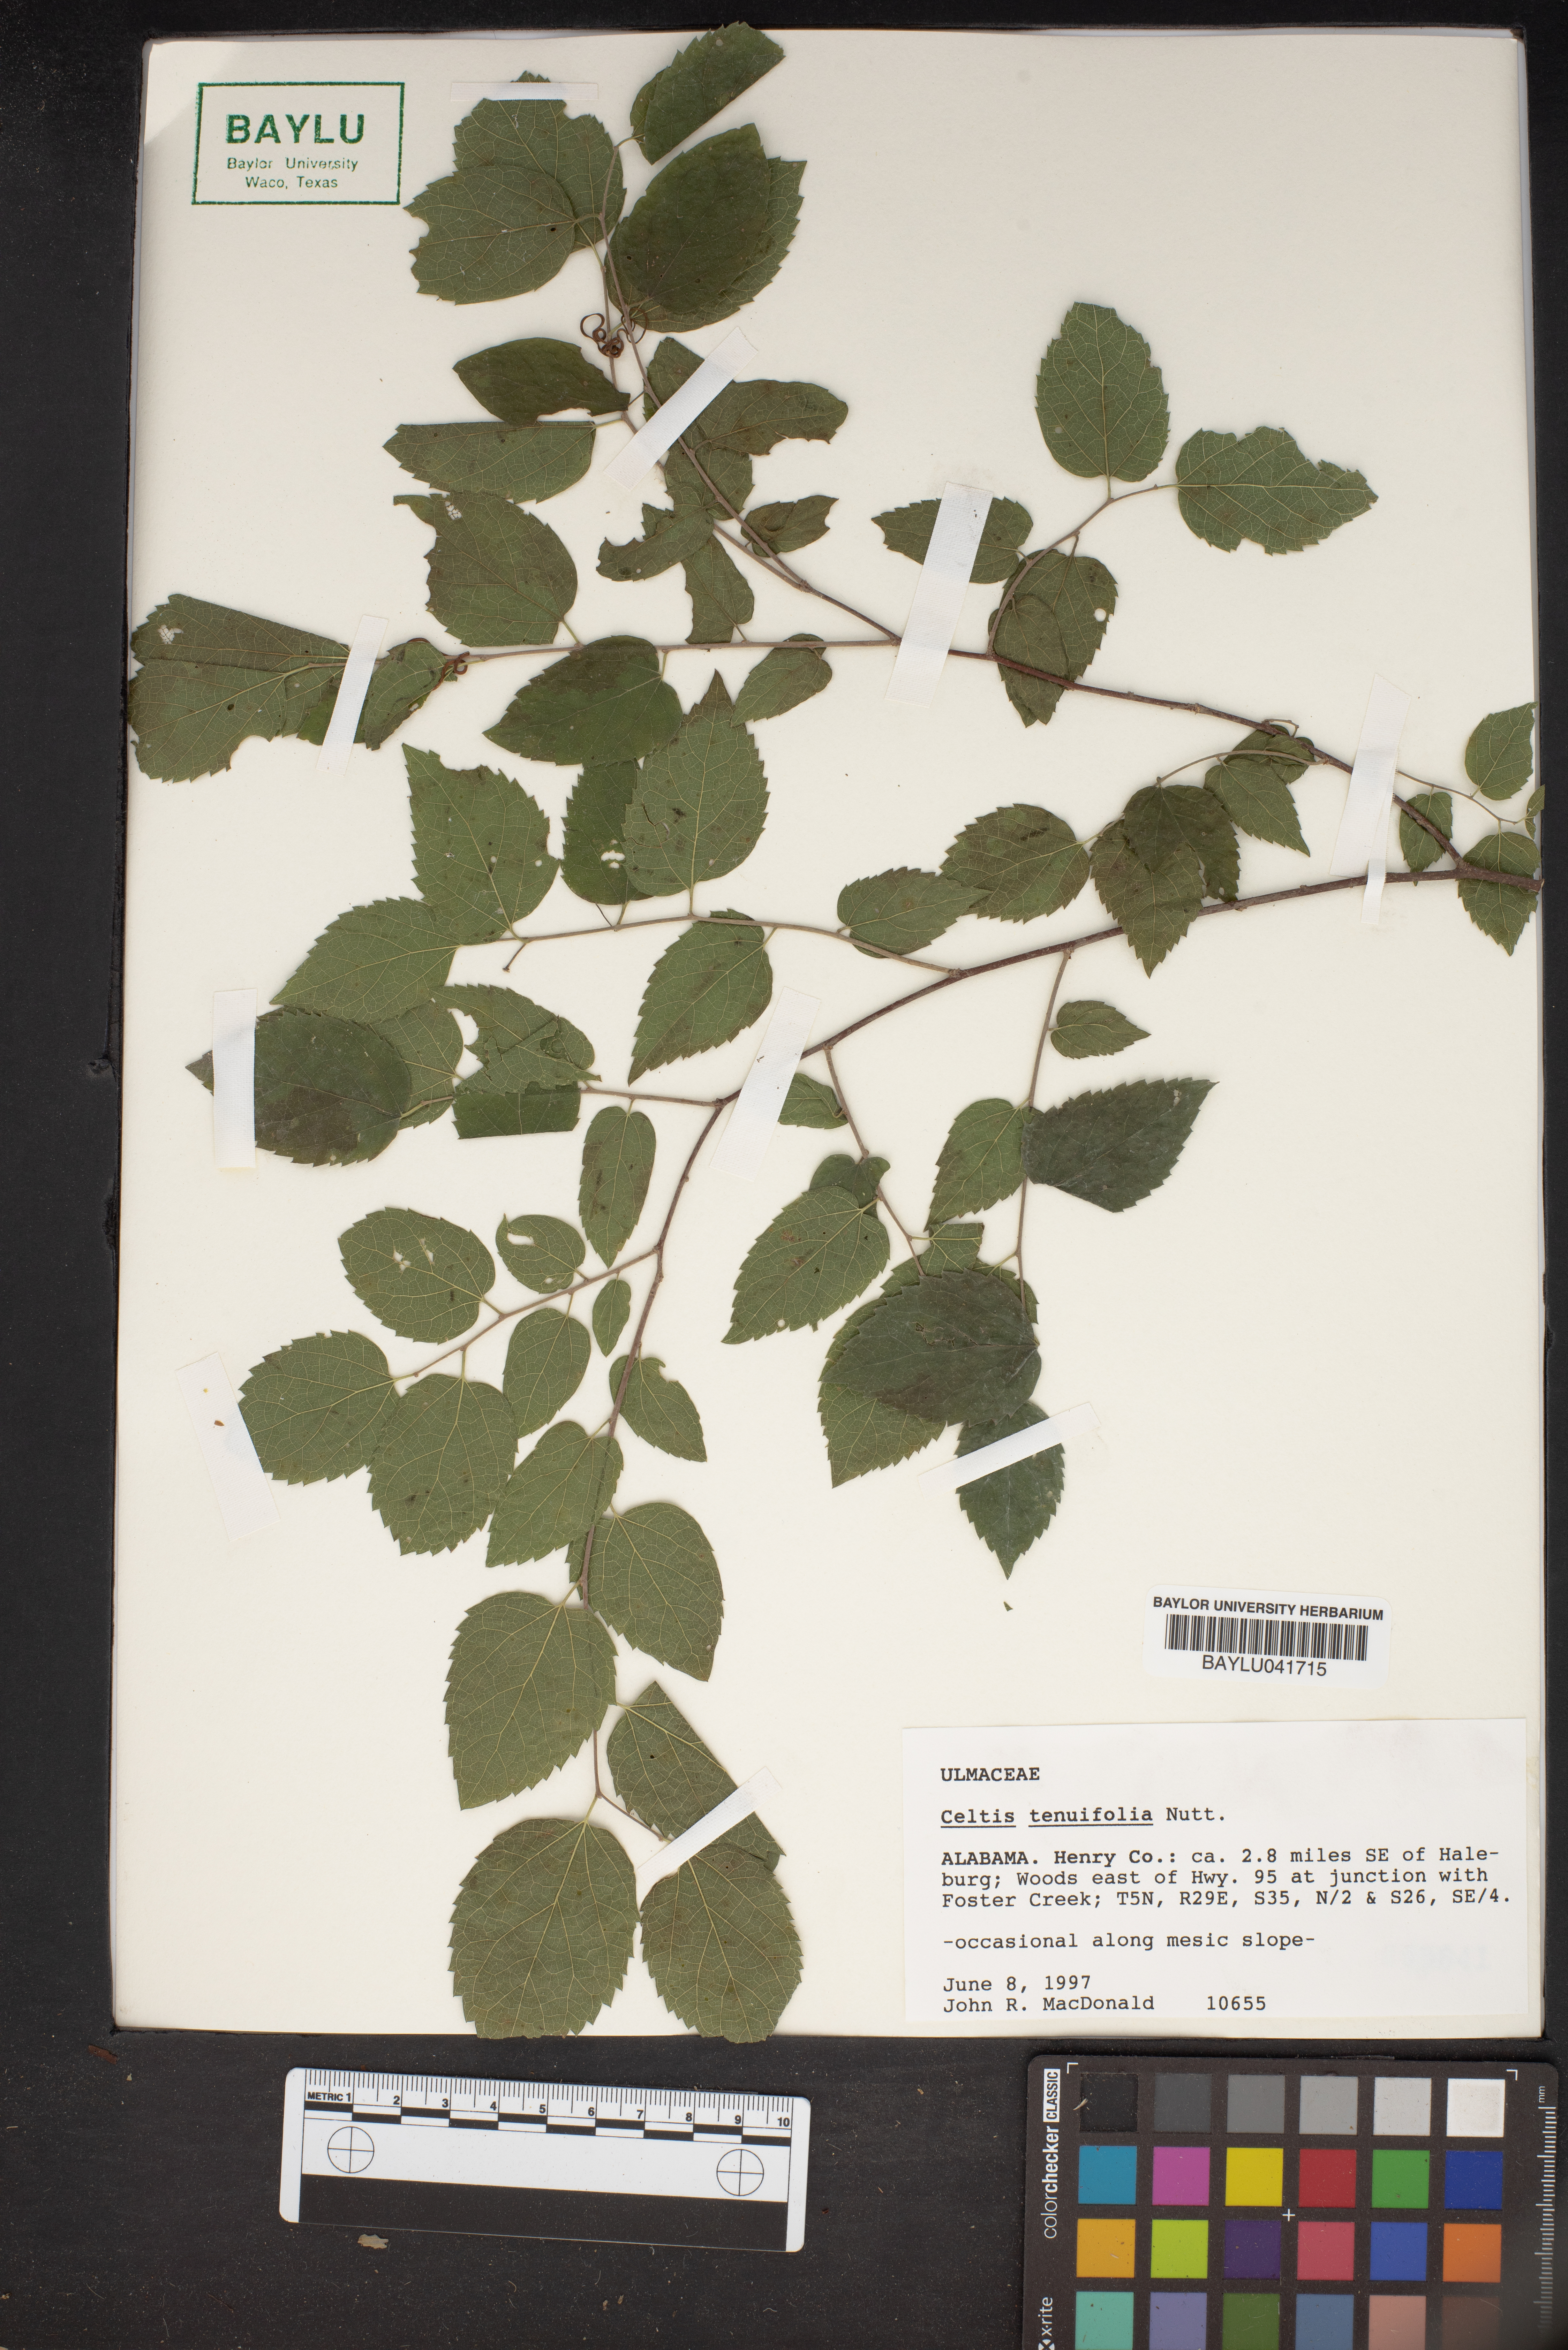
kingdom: Plantae
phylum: Tracheophyta
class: Magnoliopsida
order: Rosales
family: Cannabaceae
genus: Celtis
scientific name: Celtis tenuifolia
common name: Georgia hackberry
